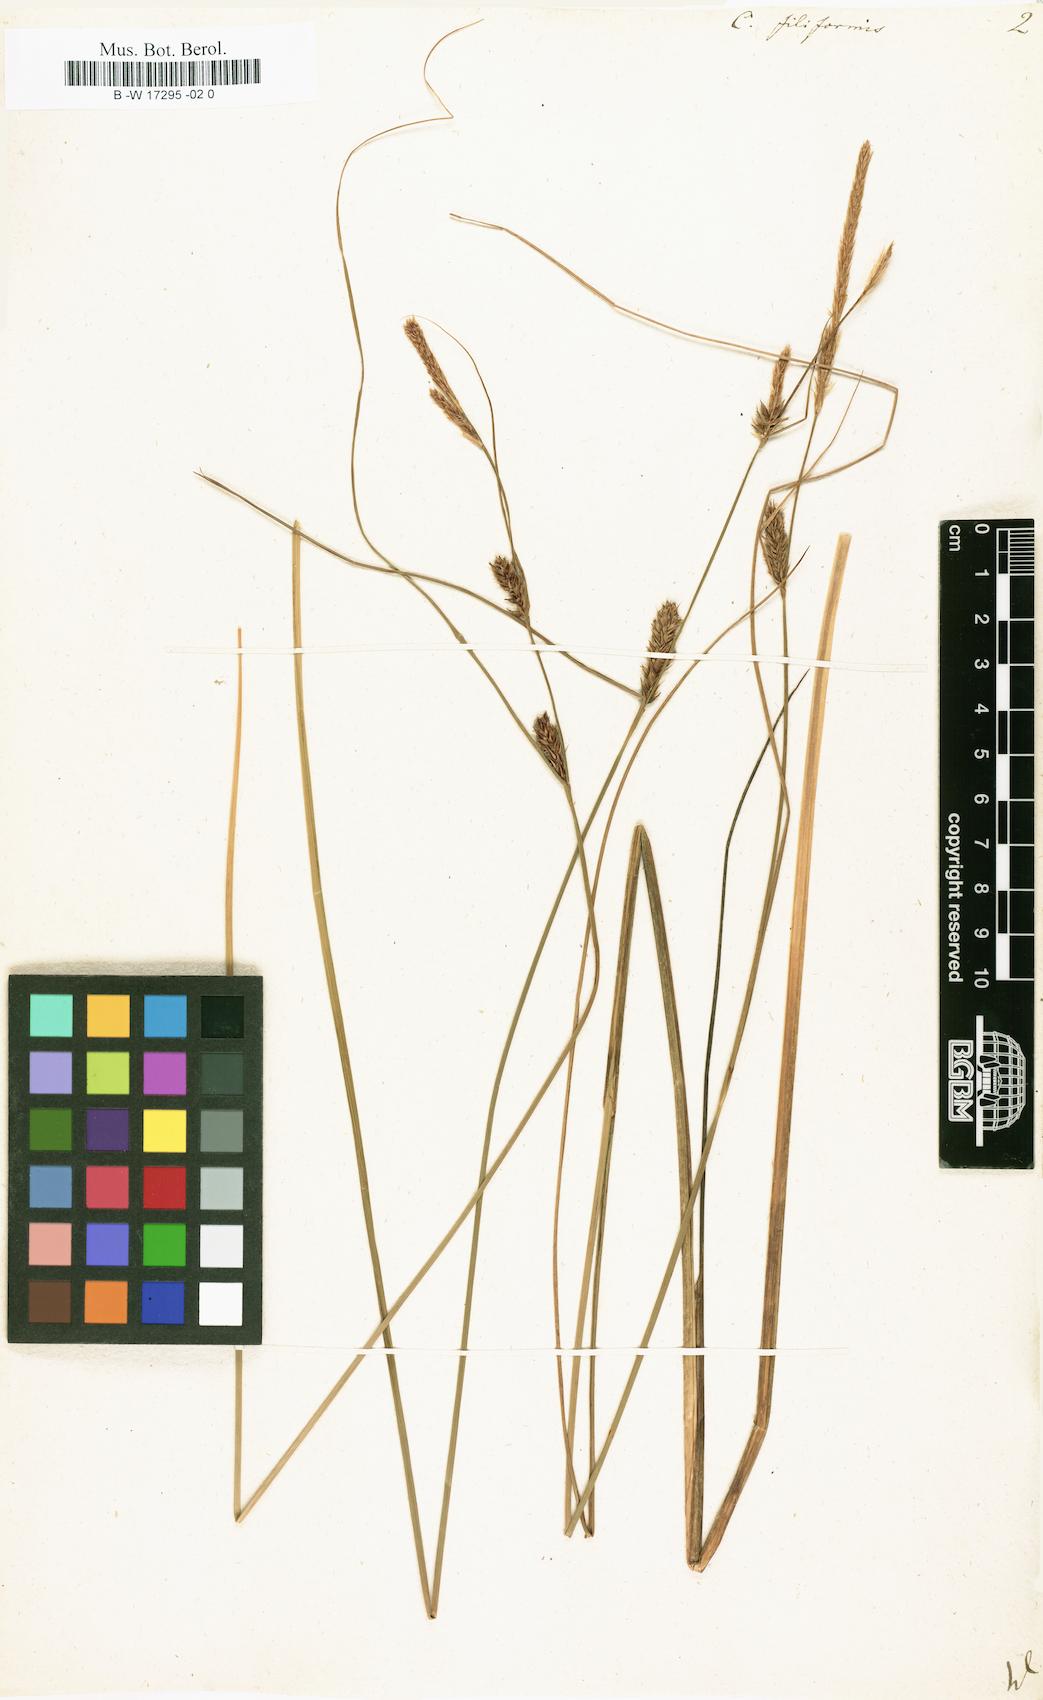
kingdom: Plantae
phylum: Tracheophyta
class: Liliopsida
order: Poales
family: Cyperaceae
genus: Carex
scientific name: Carex montana
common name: Soft-leaved sedge
